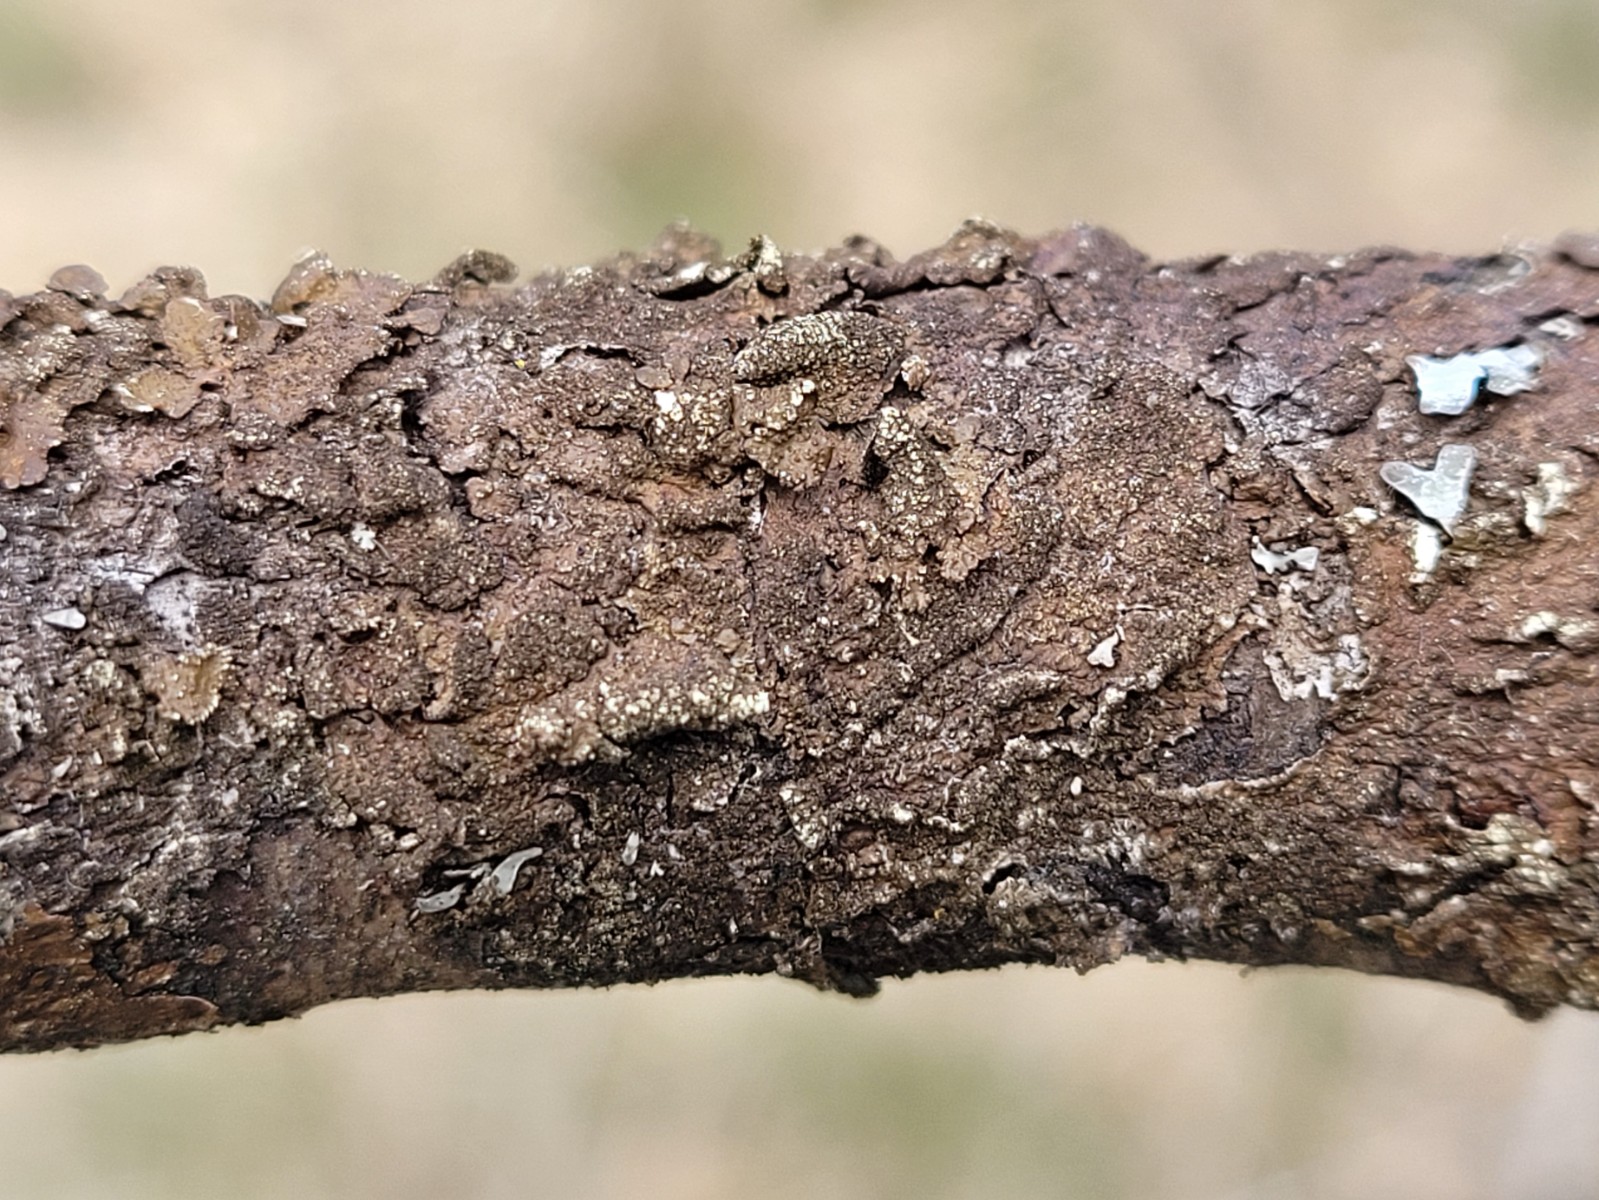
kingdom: Fungi
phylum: Ascomycota
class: Lecanoromycetes
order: Lecanorales
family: Parmeliaceae
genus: Melanelixia
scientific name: Melanelixia subaurifera
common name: guldpudret skållav
